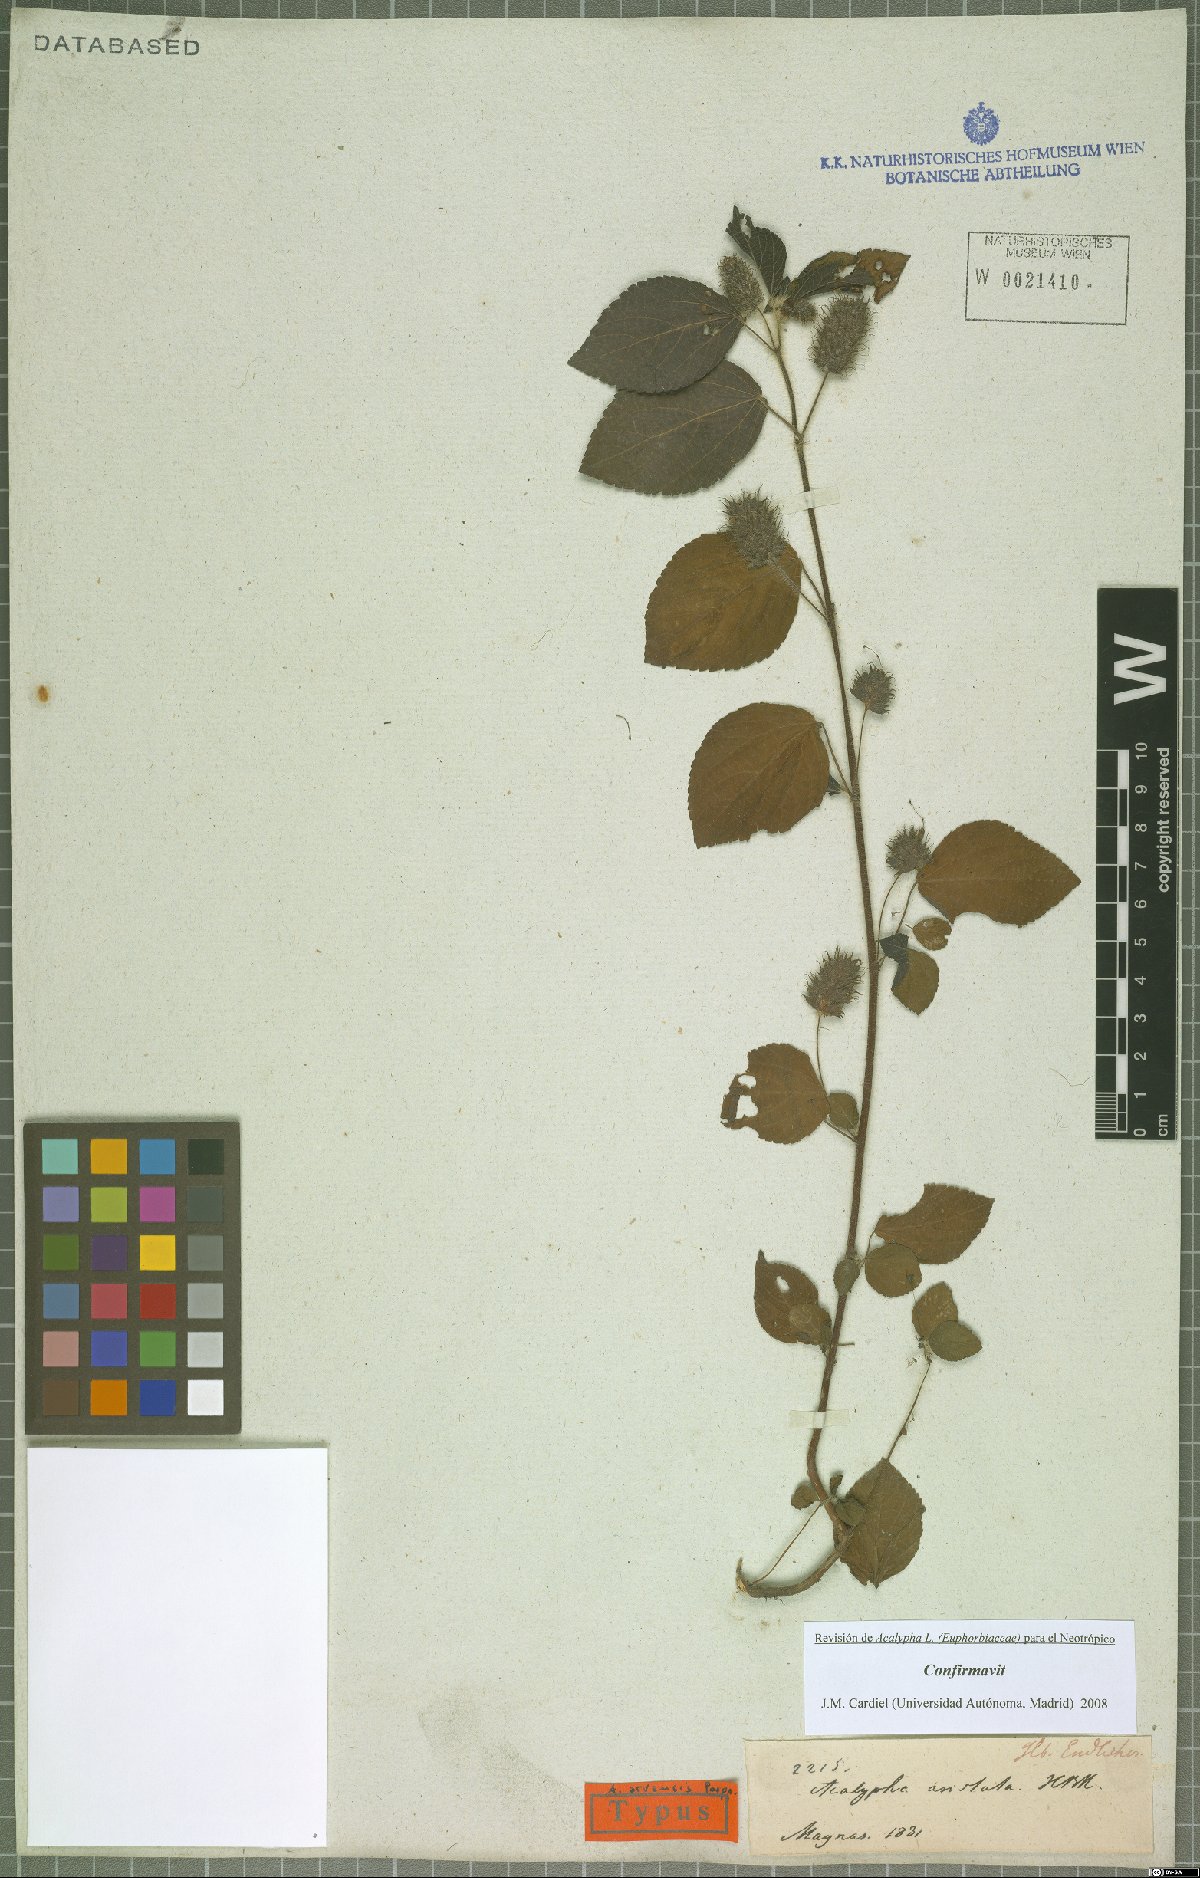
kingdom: Plantae
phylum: Tracheophyta
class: Magnoliopsida
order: Malpighiales
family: Euphorbiaceae
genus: Acalypha
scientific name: Acalypha arvensis
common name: Field copperleaf
